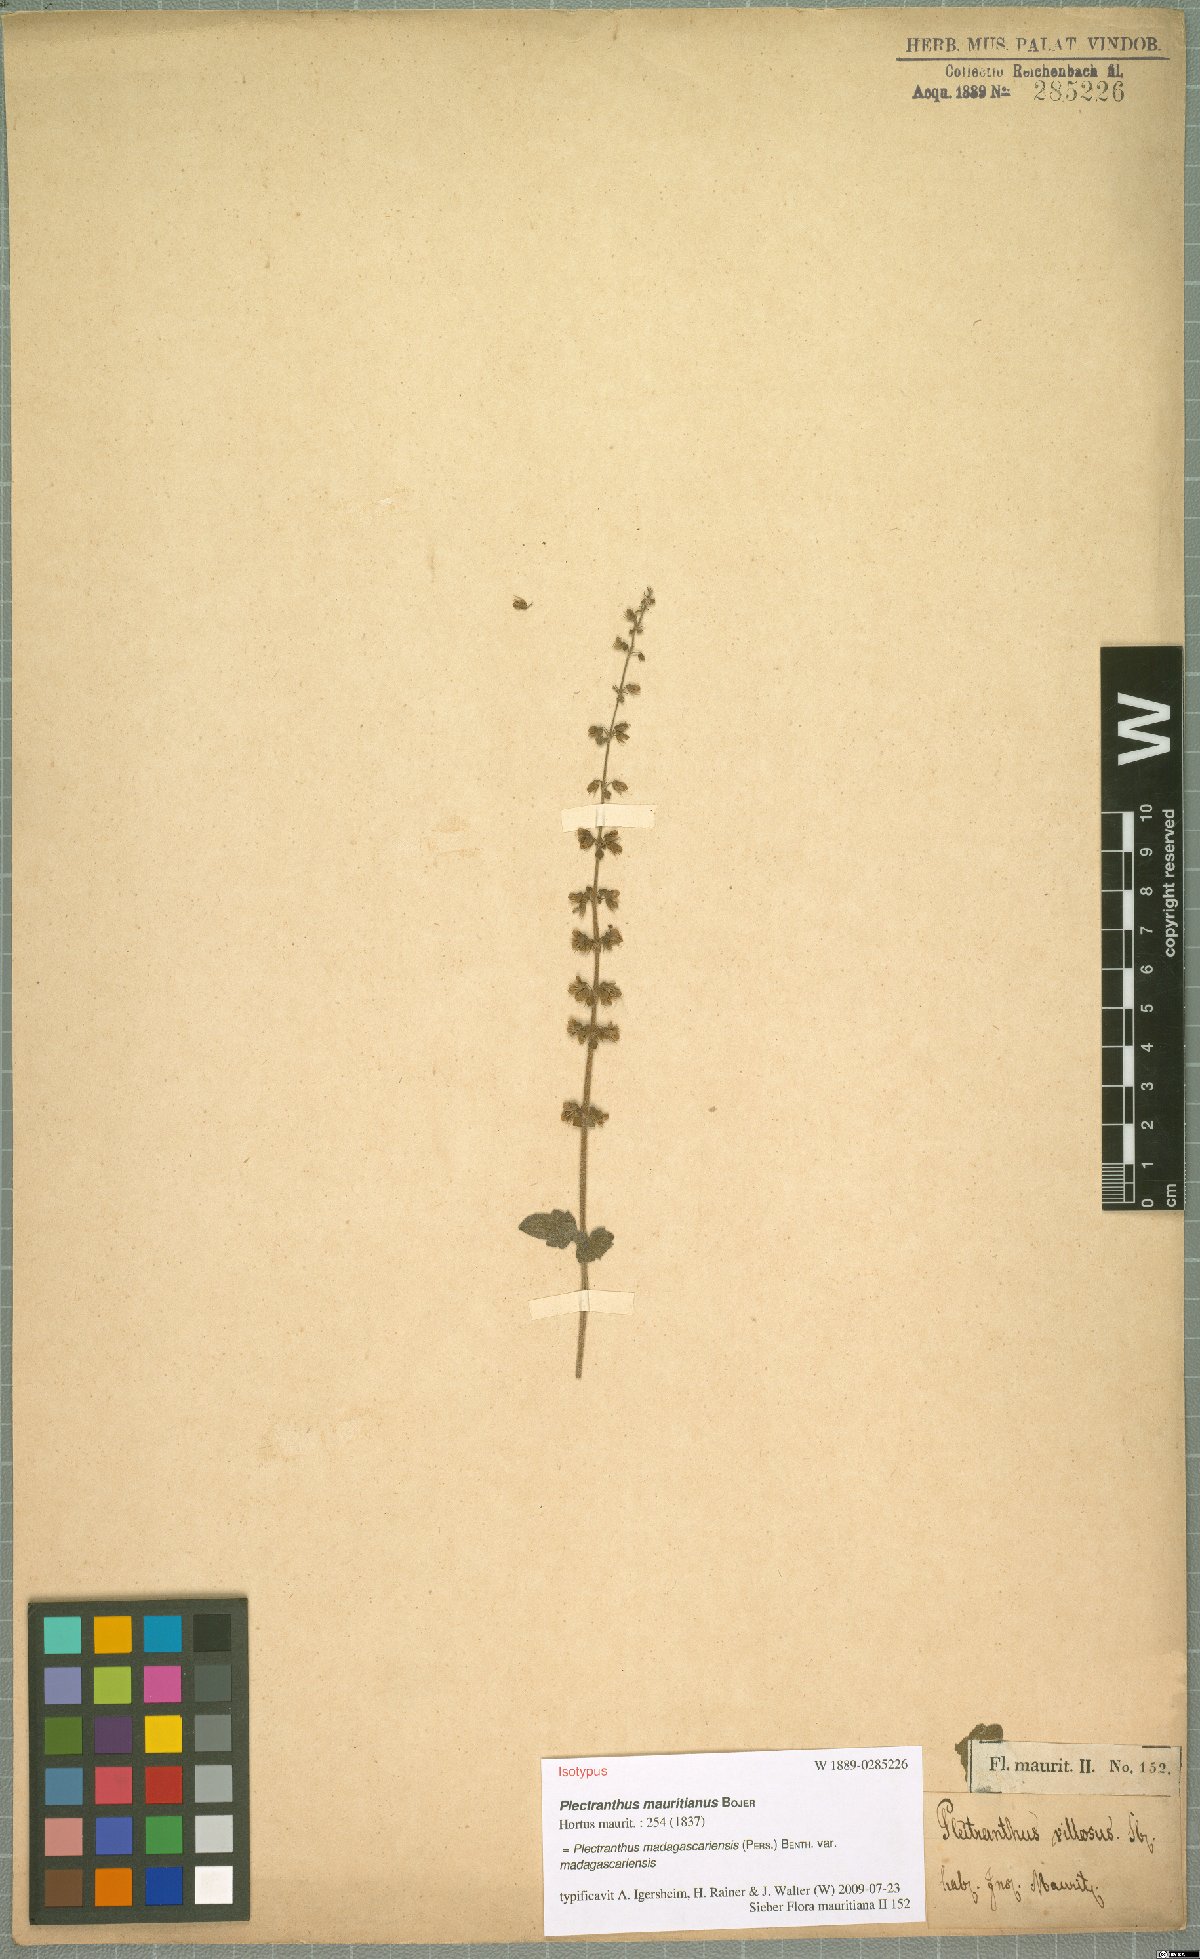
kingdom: Plantae
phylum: Tracheophyta
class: Magnoliopsida
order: Lamiales
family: Lamiaceae
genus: Coleus
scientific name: Coleus madagascariensis
